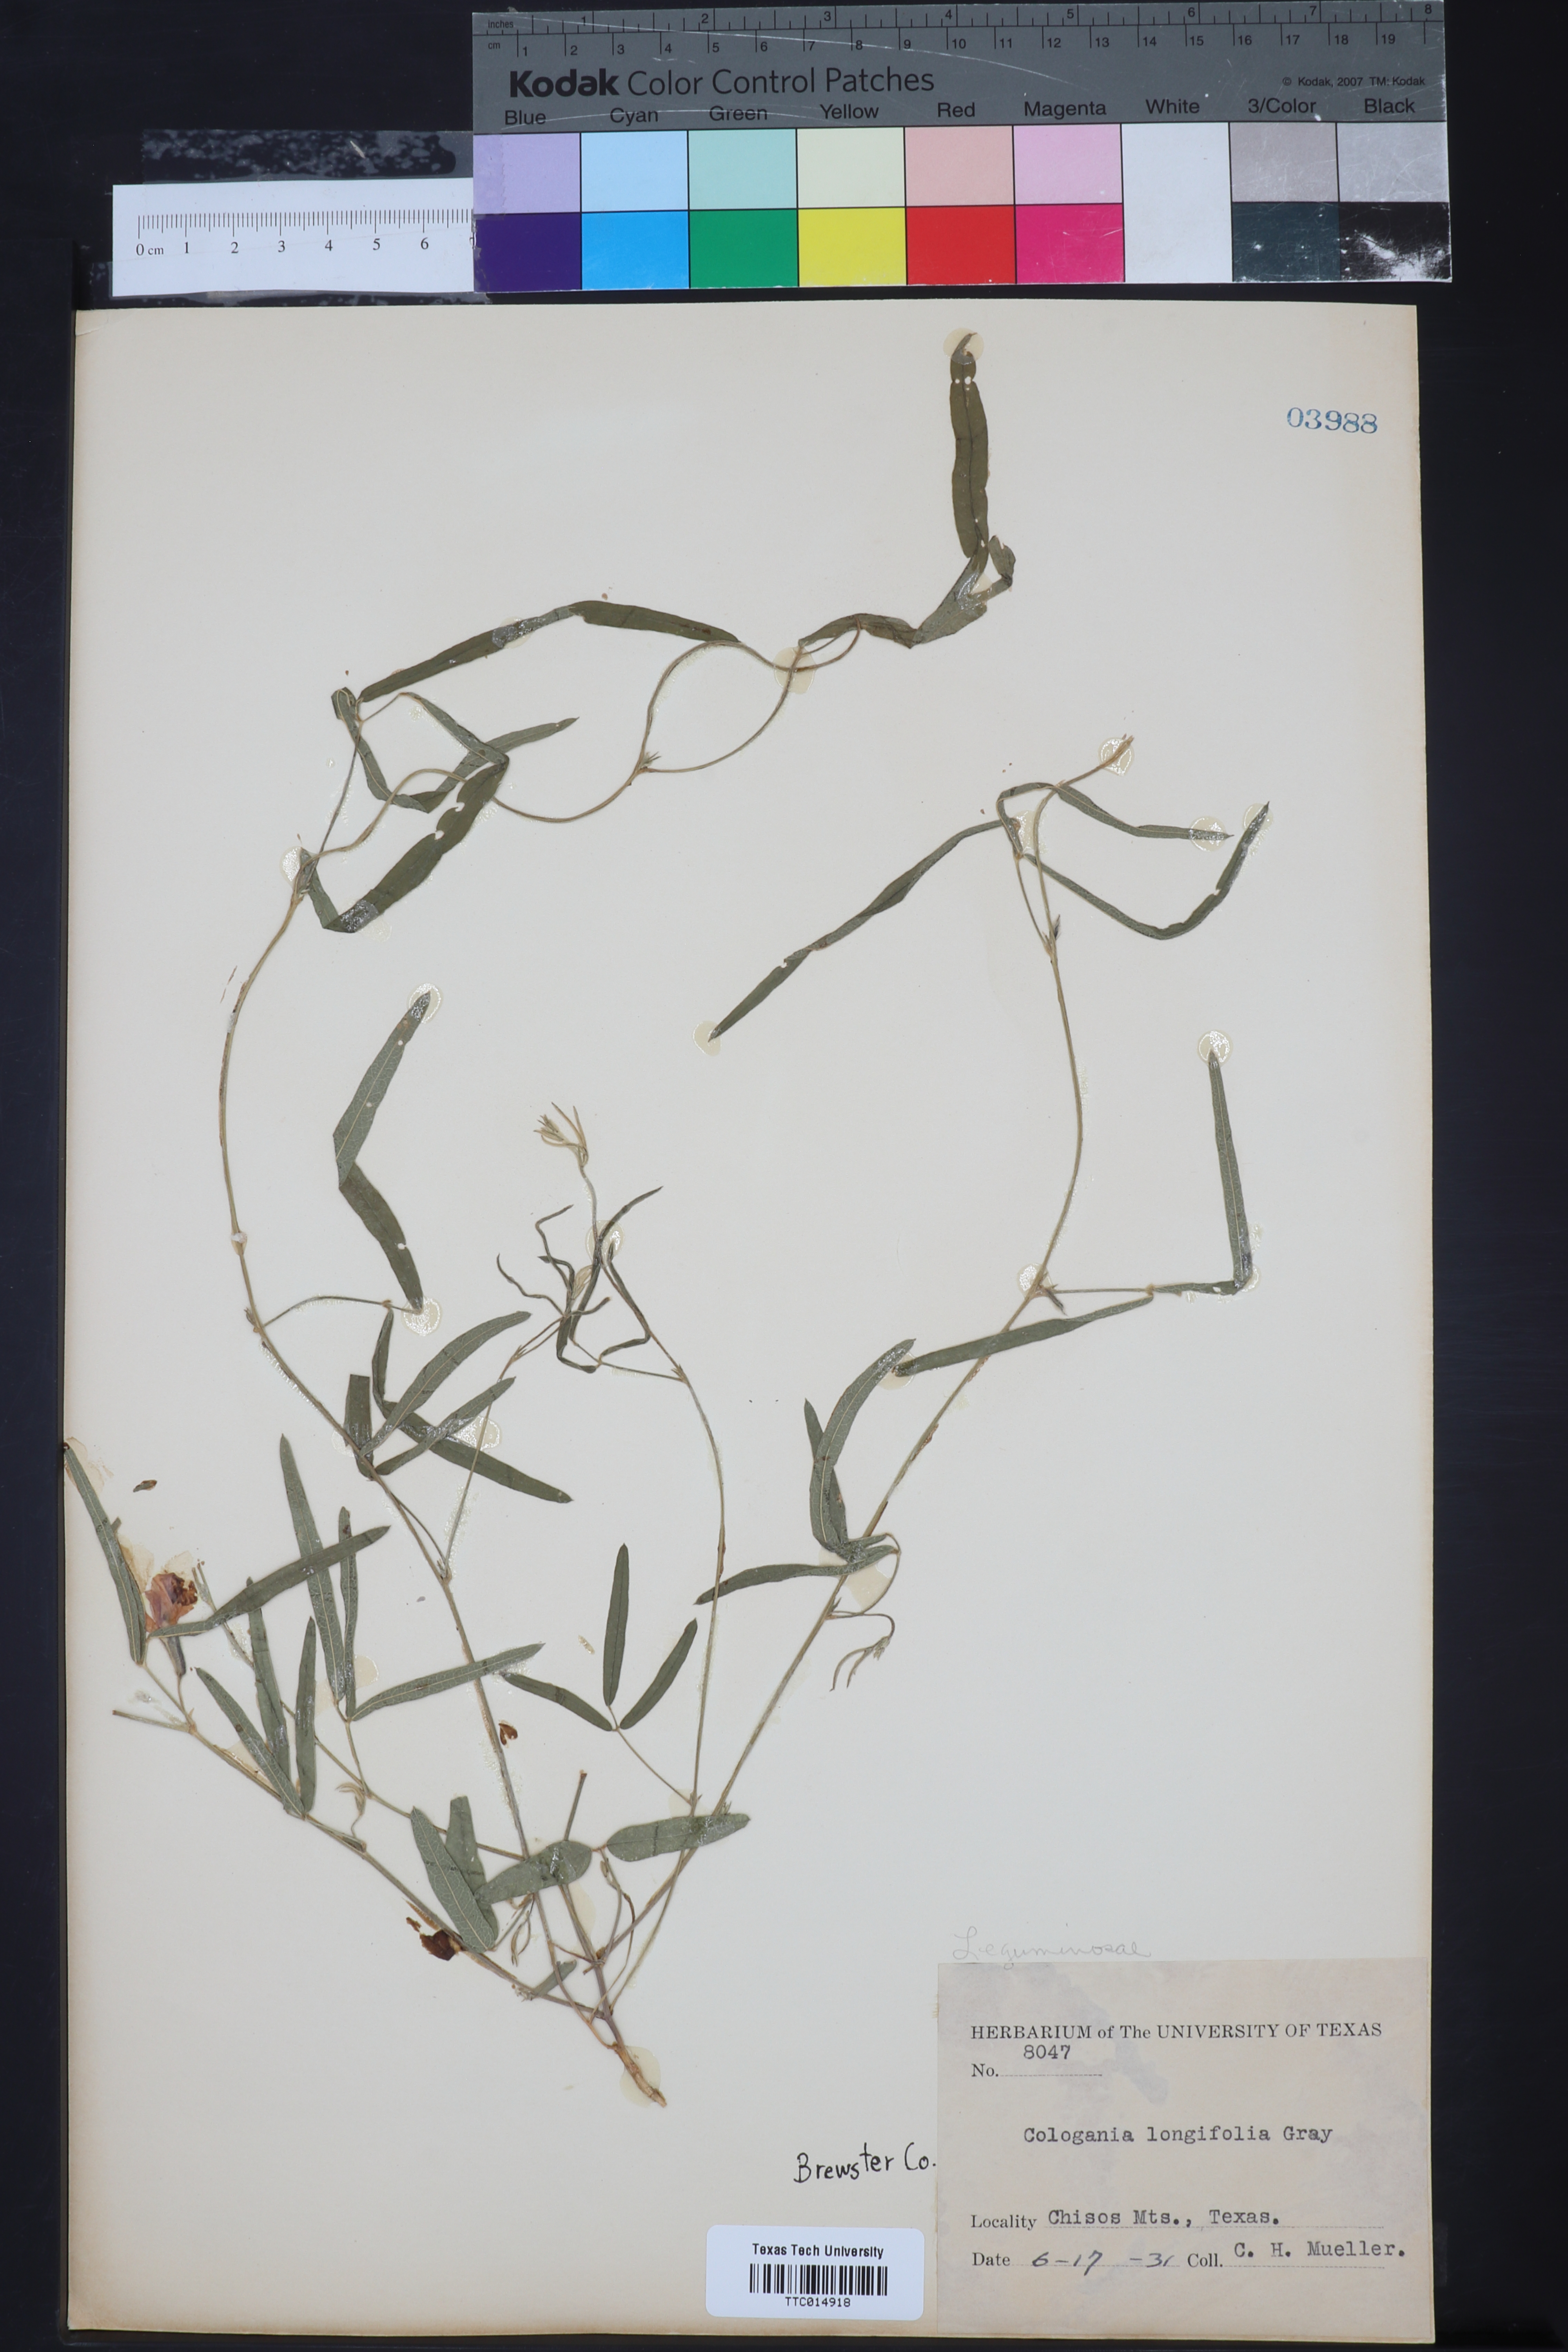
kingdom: Plantae
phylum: Tracheophyta
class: Magnoliopsida
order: Fabales
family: Fabaceae
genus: Cologania
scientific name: Cologania angustifolia
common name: Longleaf cologania
